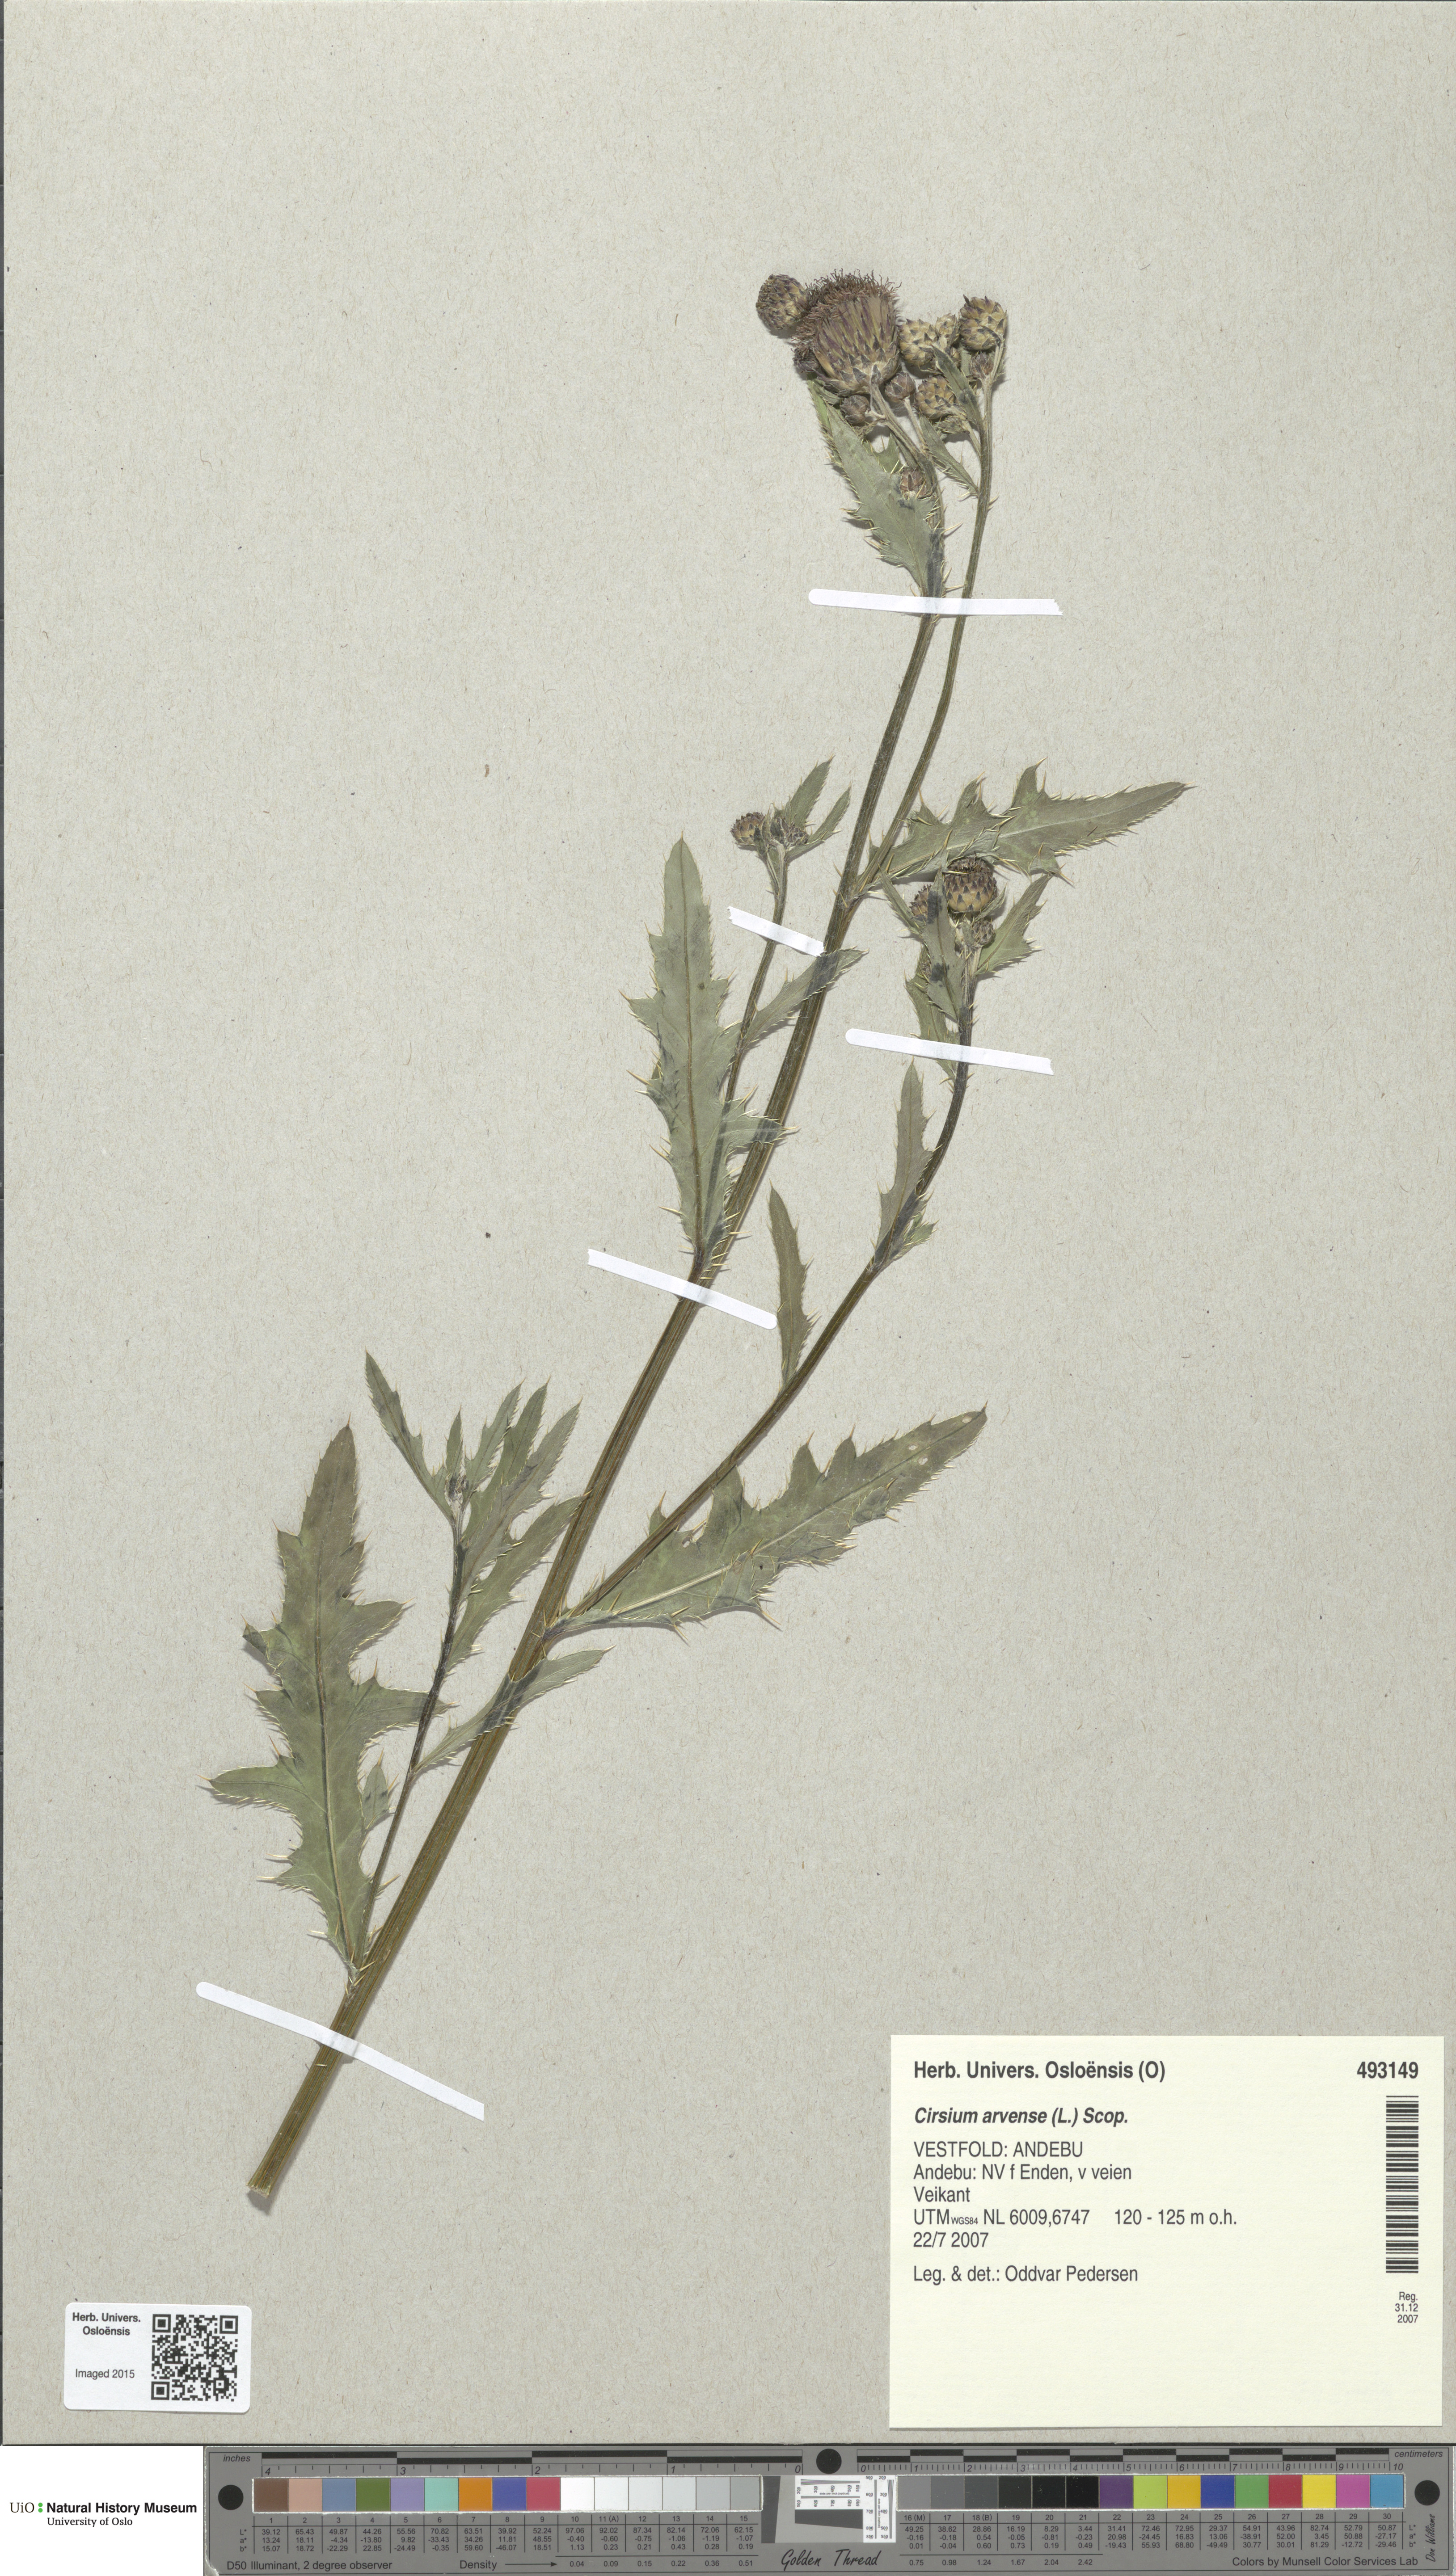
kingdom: Plantae
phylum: Tracheophyta
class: Magnoliopsida
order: Asterales
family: Asteraceae
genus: Cirsium
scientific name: Cirsium arvense
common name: Creeping thistle
